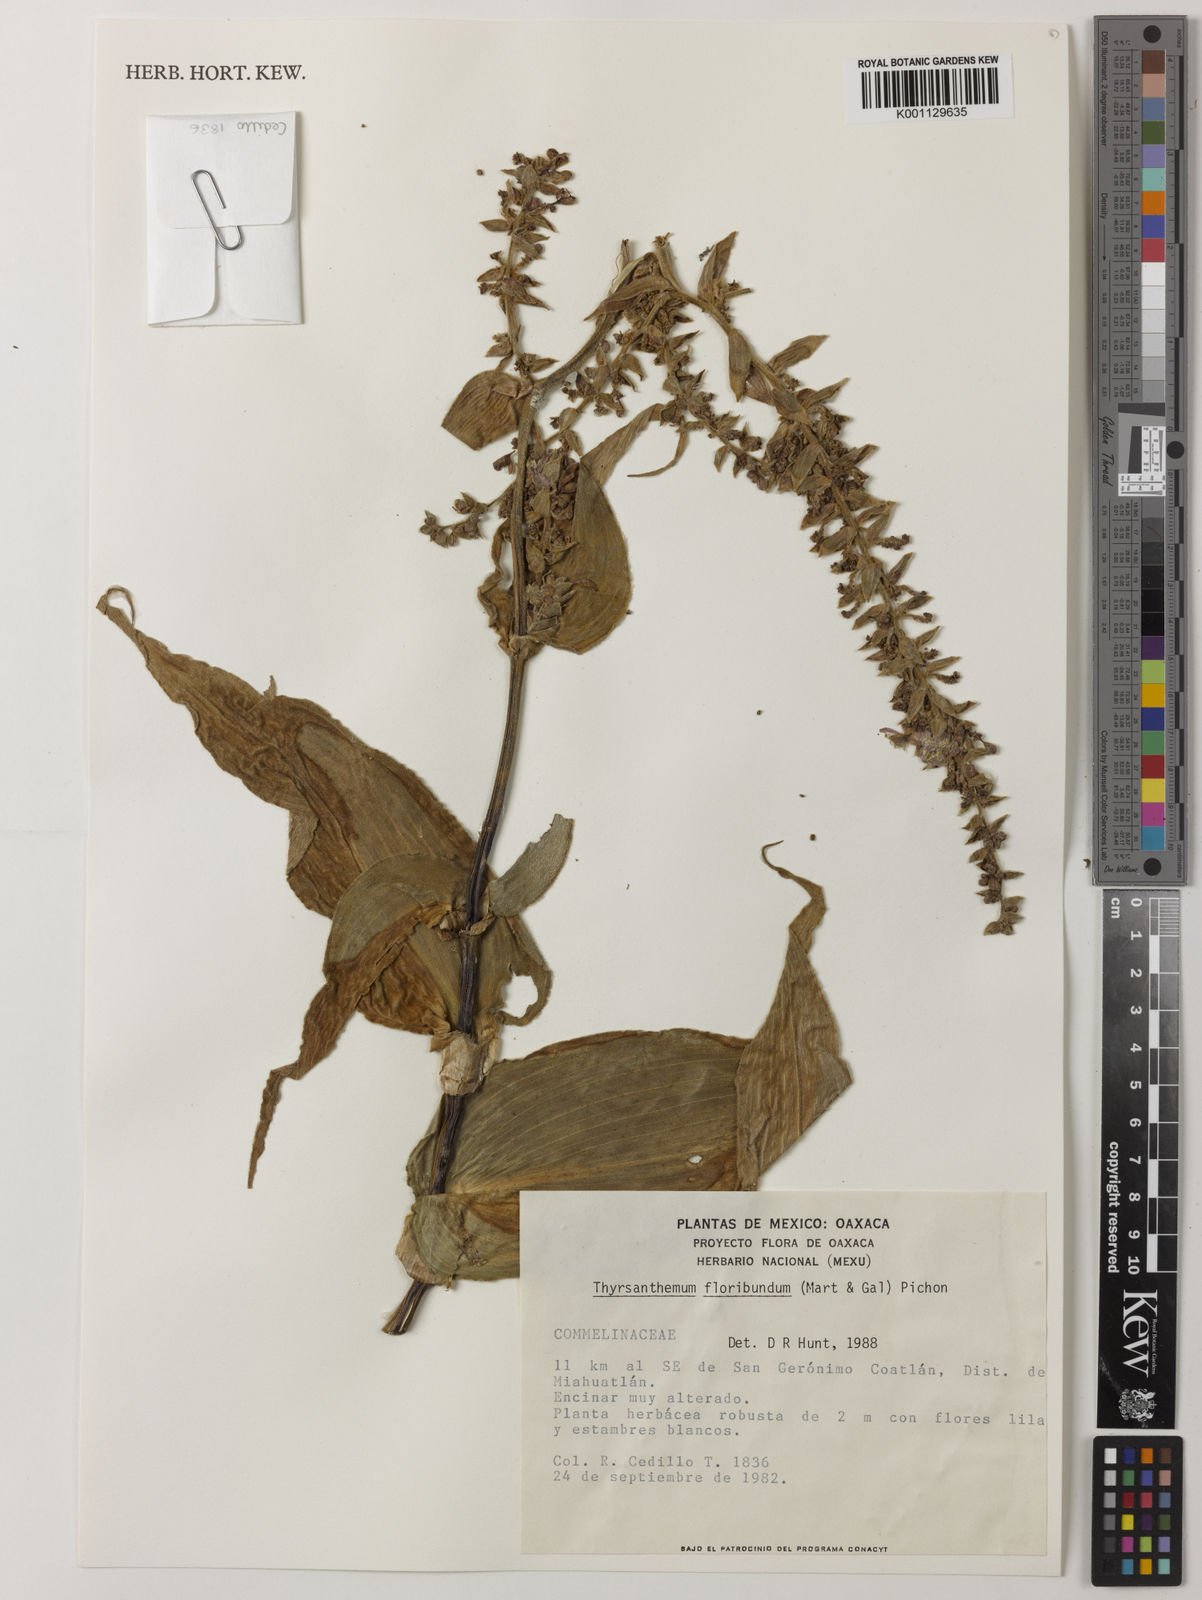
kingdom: Plantae
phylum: Tracheophyta
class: Liliopsida
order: Commelinales
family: Commelinaceae
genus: Thyrsanthemum
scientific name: Thyrsanthemum floribundum
